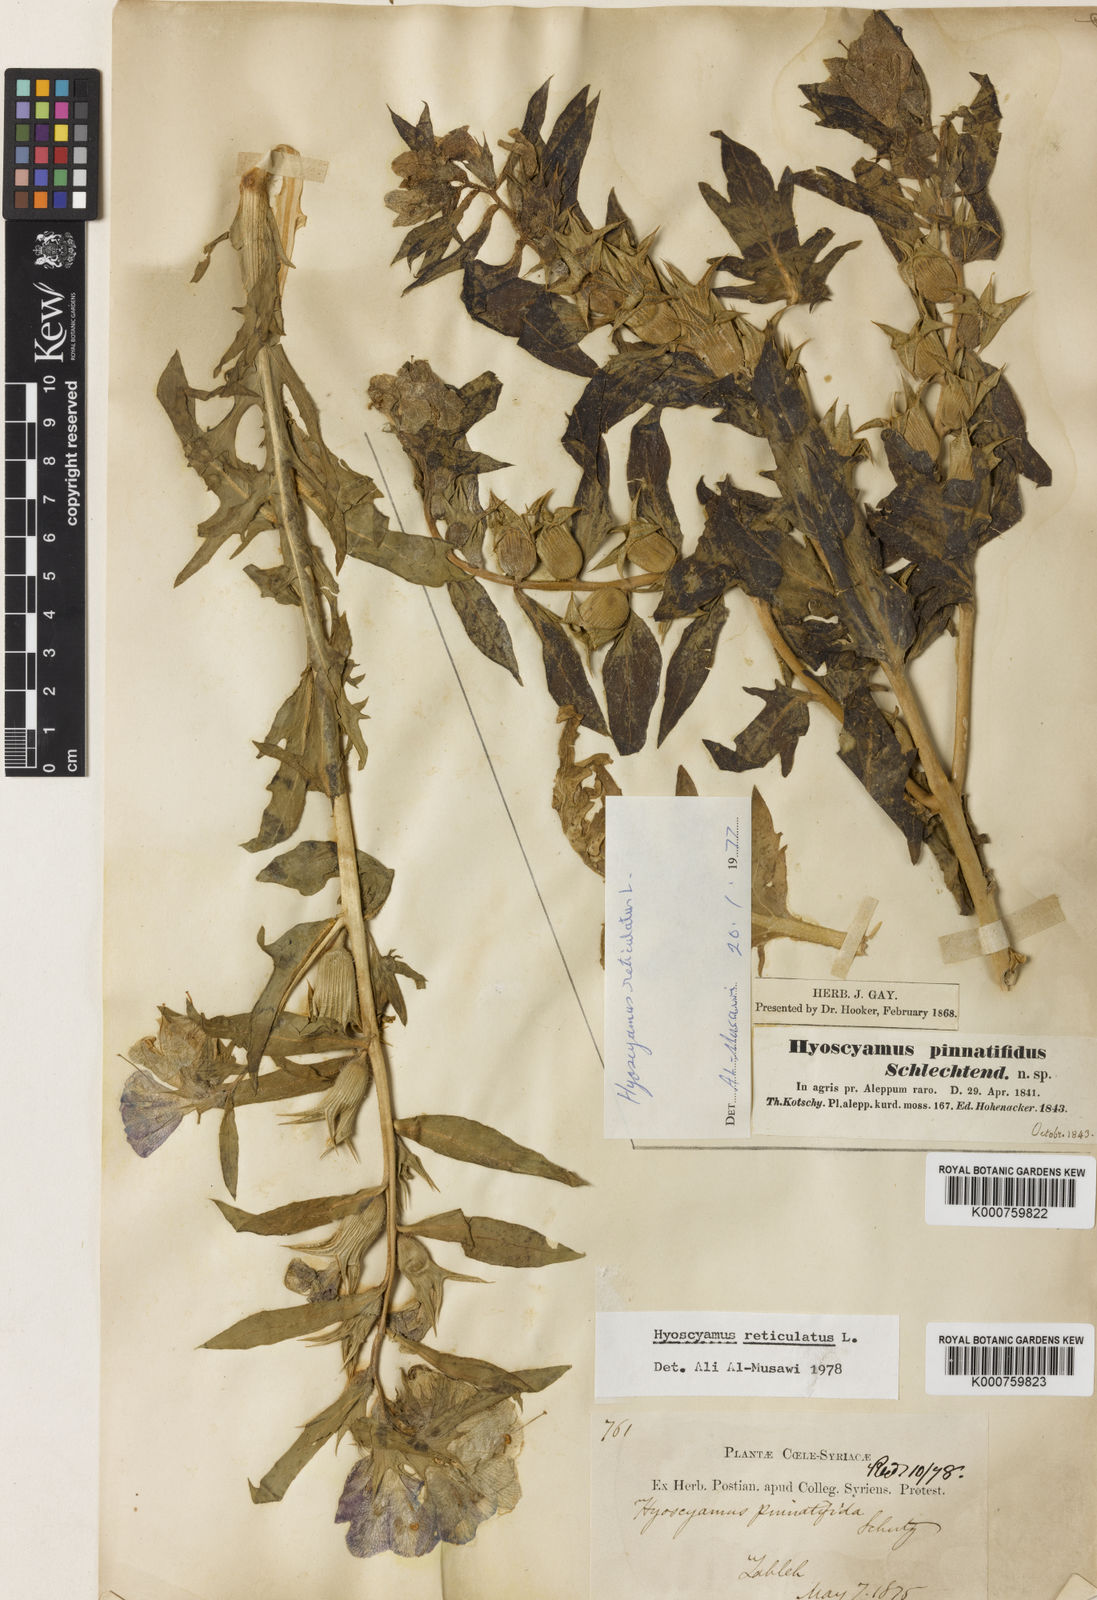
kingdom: Plantae
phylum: Tracheophyta
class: Magnoliopsida
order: Solanales
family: Solanaceae
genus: Hyoscyamus
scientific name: Hyoscyamus reticulatus
